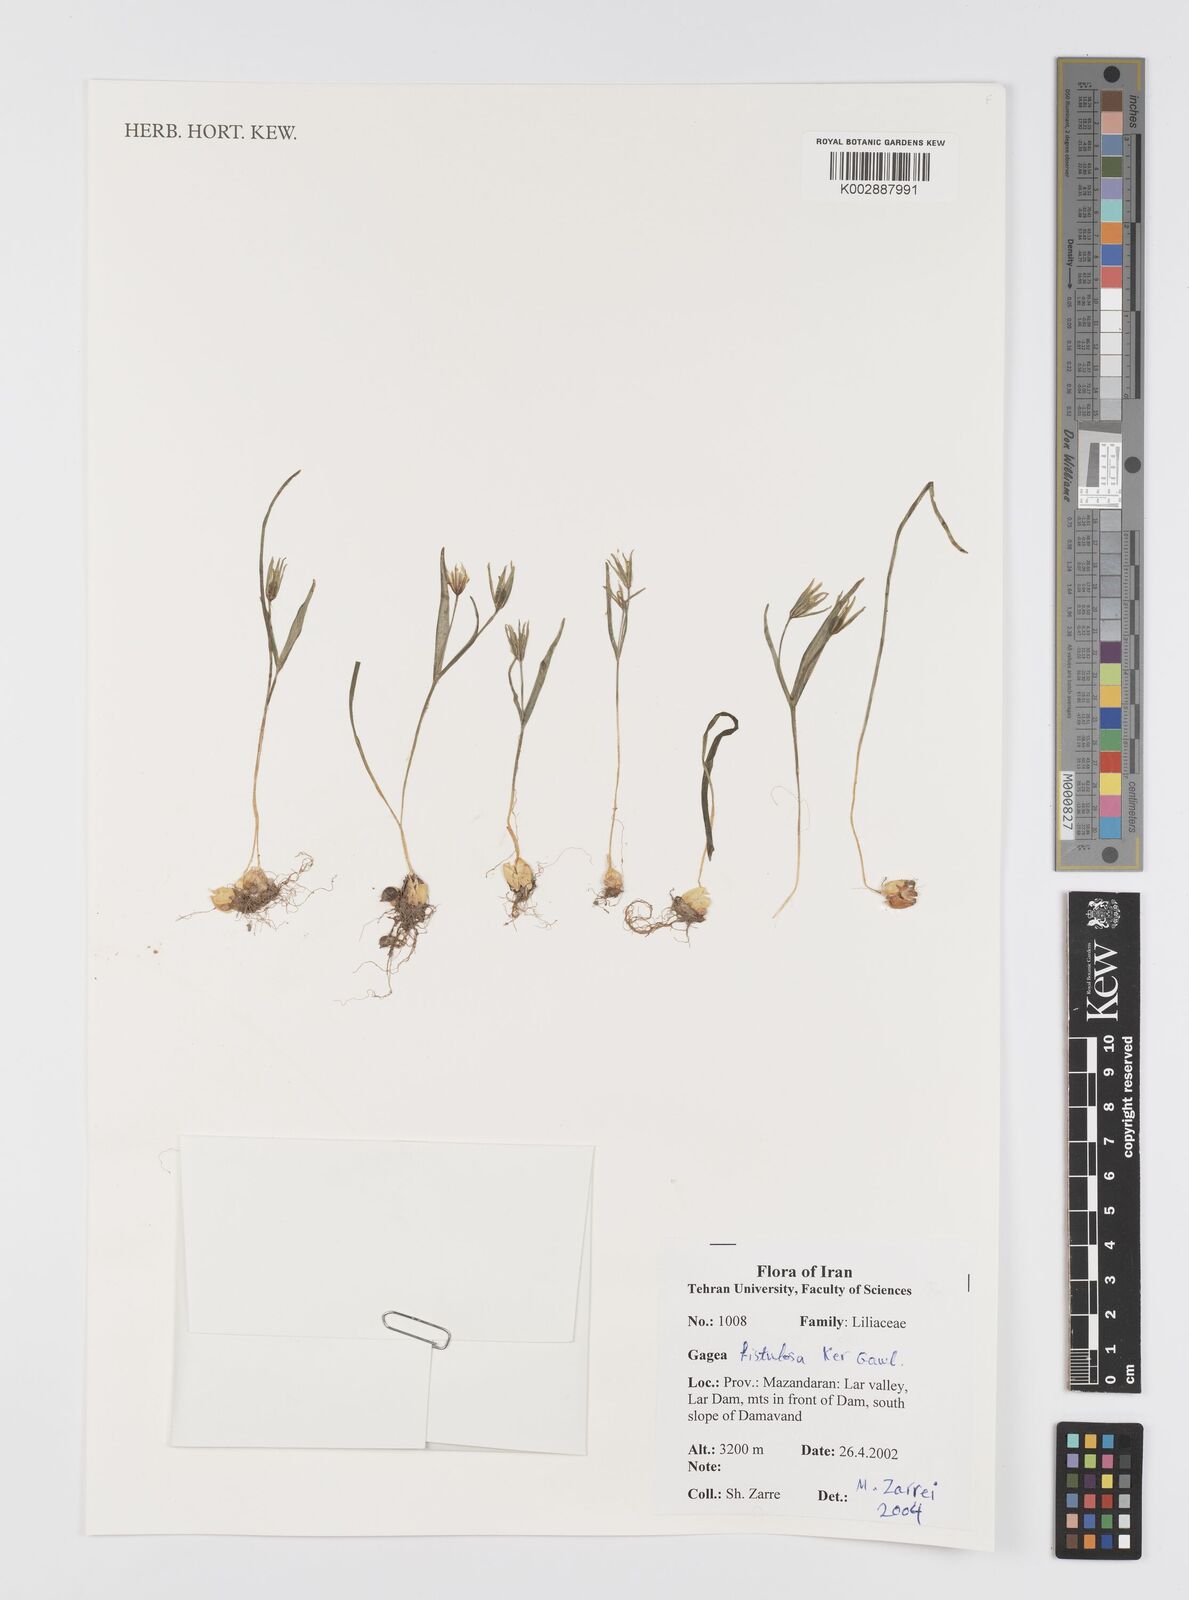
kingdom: Plantae
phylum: Tracheophyta
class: Liliopsida
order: Liliales
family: Liliaceae
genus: Gagea
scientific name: Gagea bohemica
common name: Early star-of-bethlehem
